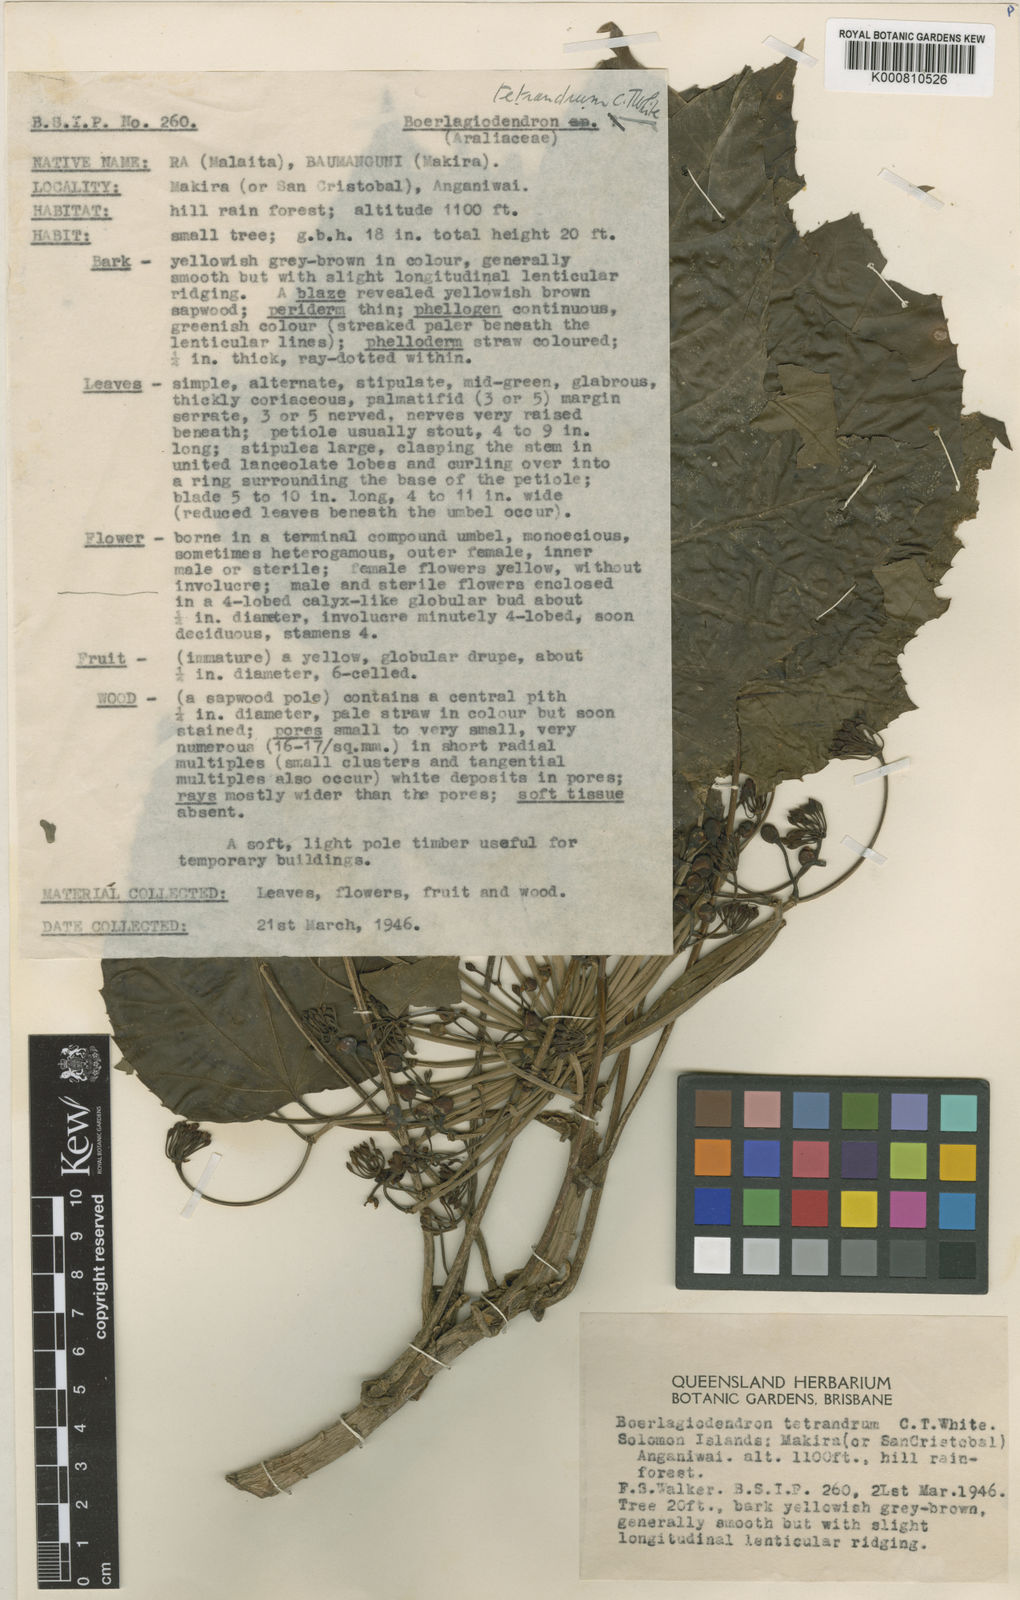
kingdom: Plantae
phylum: Tracheophyta
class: Magnoliopsida
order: Apiales
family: Araliaceae
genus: Osmoxylon
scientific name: Osmoxylon tetrandrum
